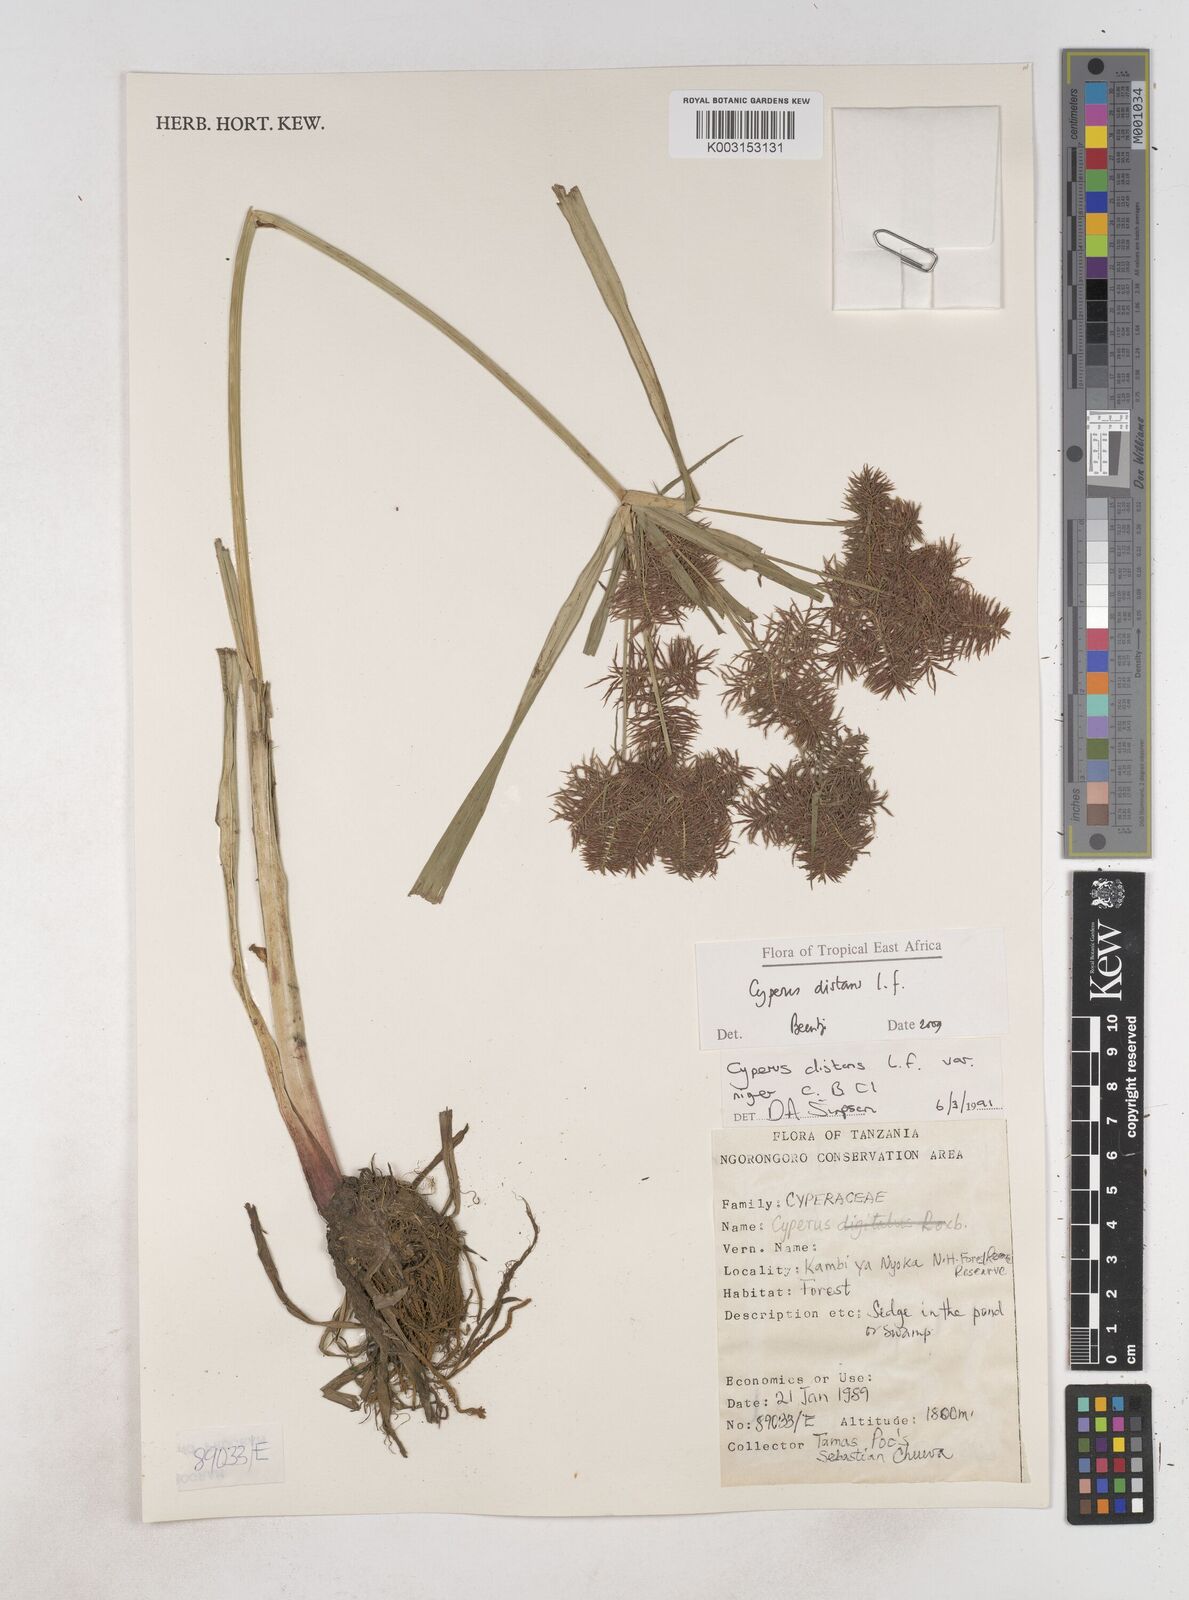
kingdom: Plantae
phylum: Tracheophyta
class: Liliopsida
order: Poales
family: Cyperaceae
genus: Cyperus
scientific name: Cyperus distans
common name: Slender cyperus
